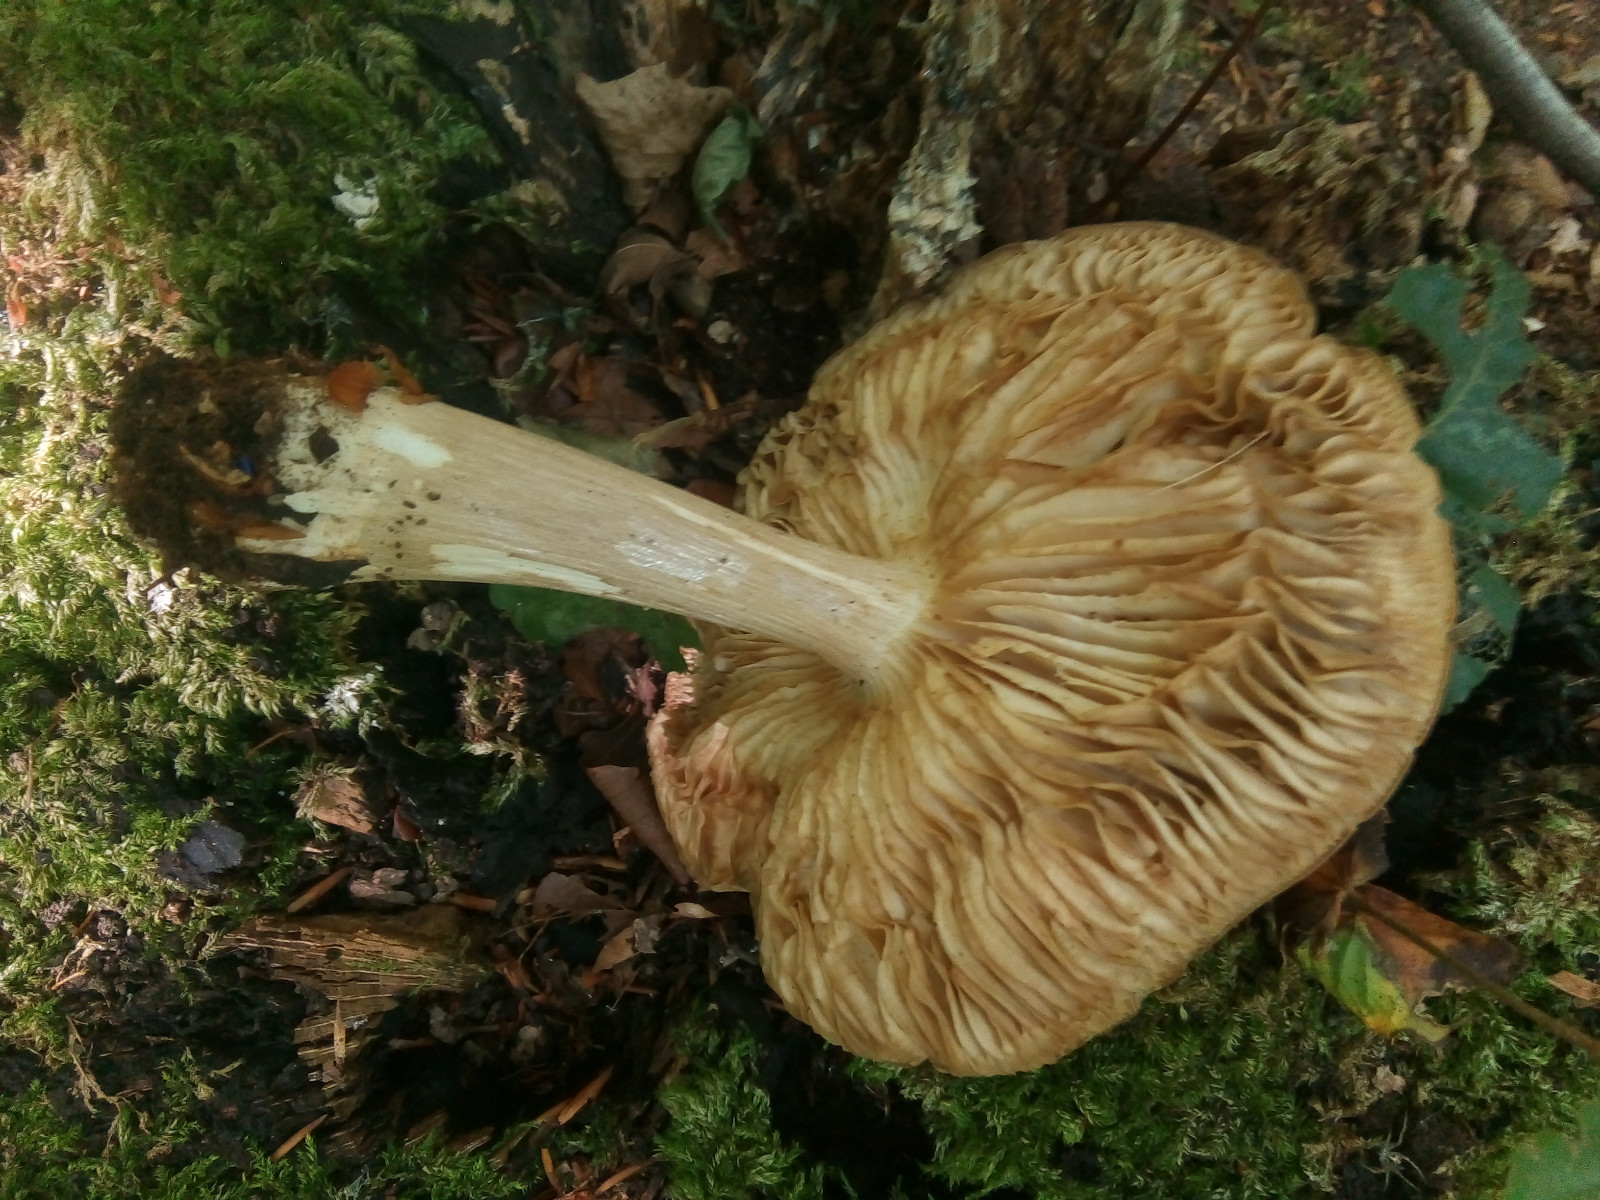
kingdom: Fungi
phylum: Basidiomycota
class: Agaricomycetes
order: Agaricales
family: Tricholomataceae
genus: Megacollybia
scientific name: Megacollybia platyphylla
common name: bredbladet væbnerhat
